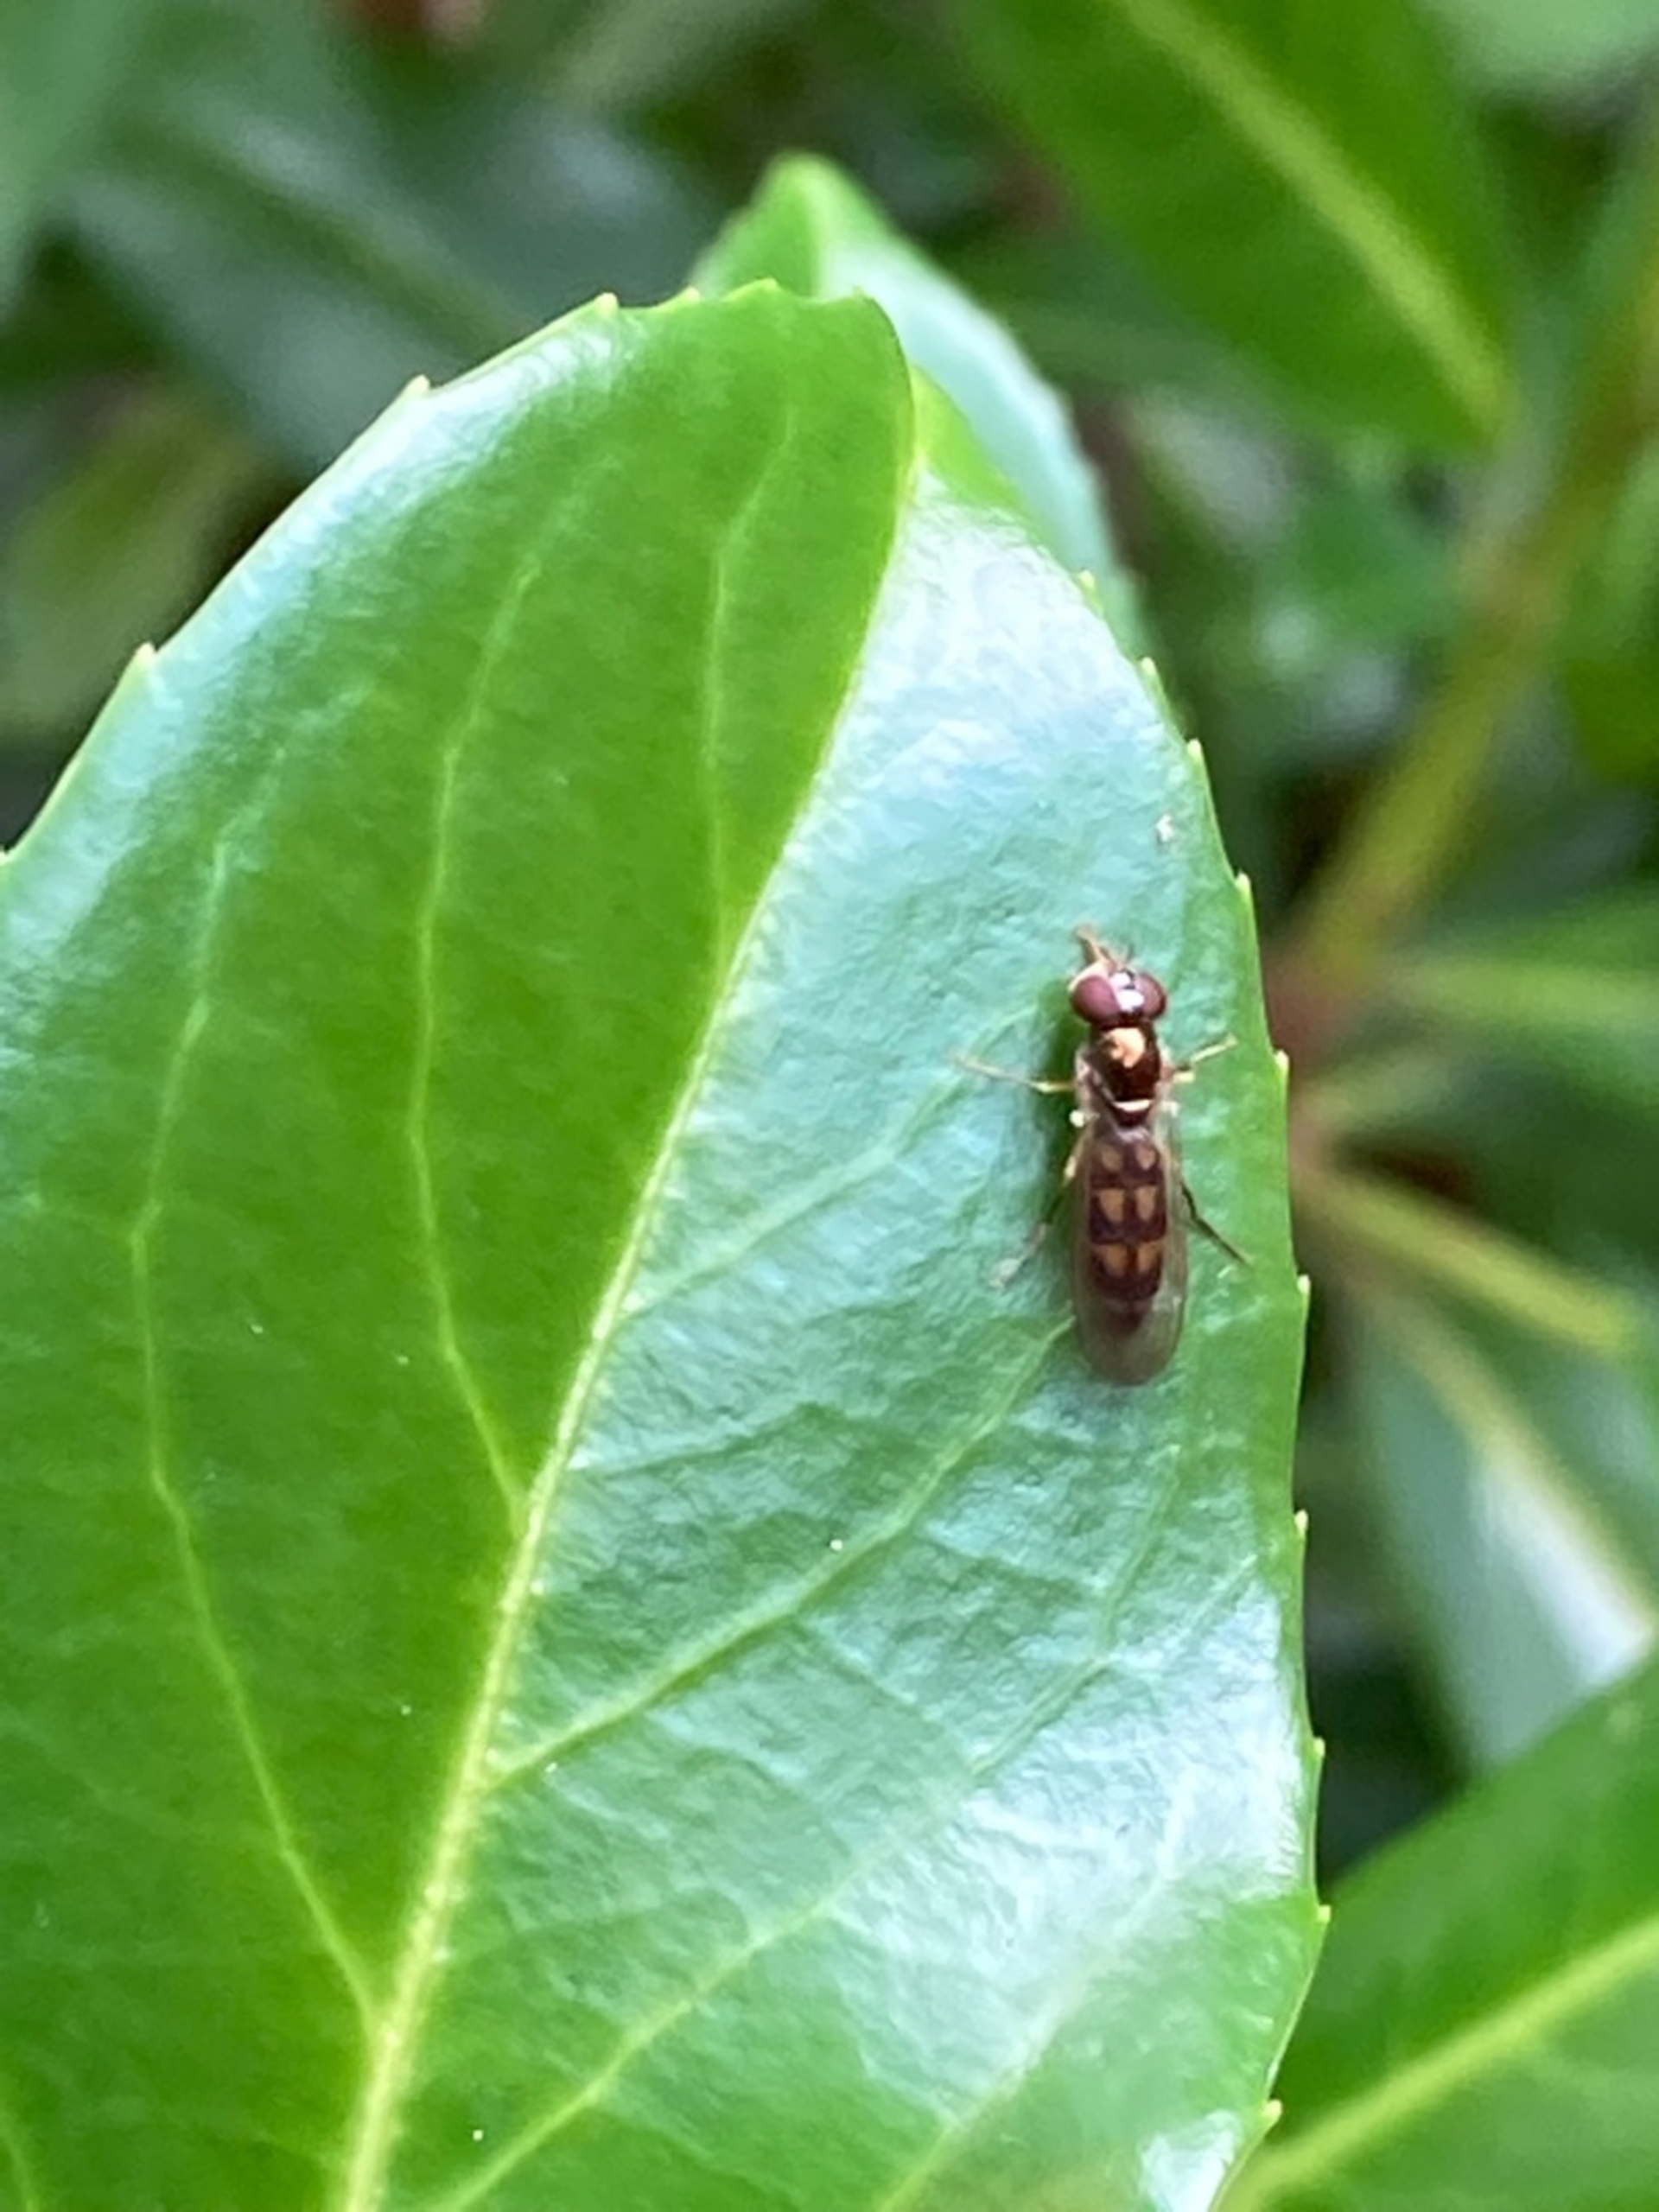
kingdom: Animalia
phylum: Arthropoda
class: Insecta
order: Diptera
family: Syrphidae
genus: Melanostoma
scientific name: Melanostoma
